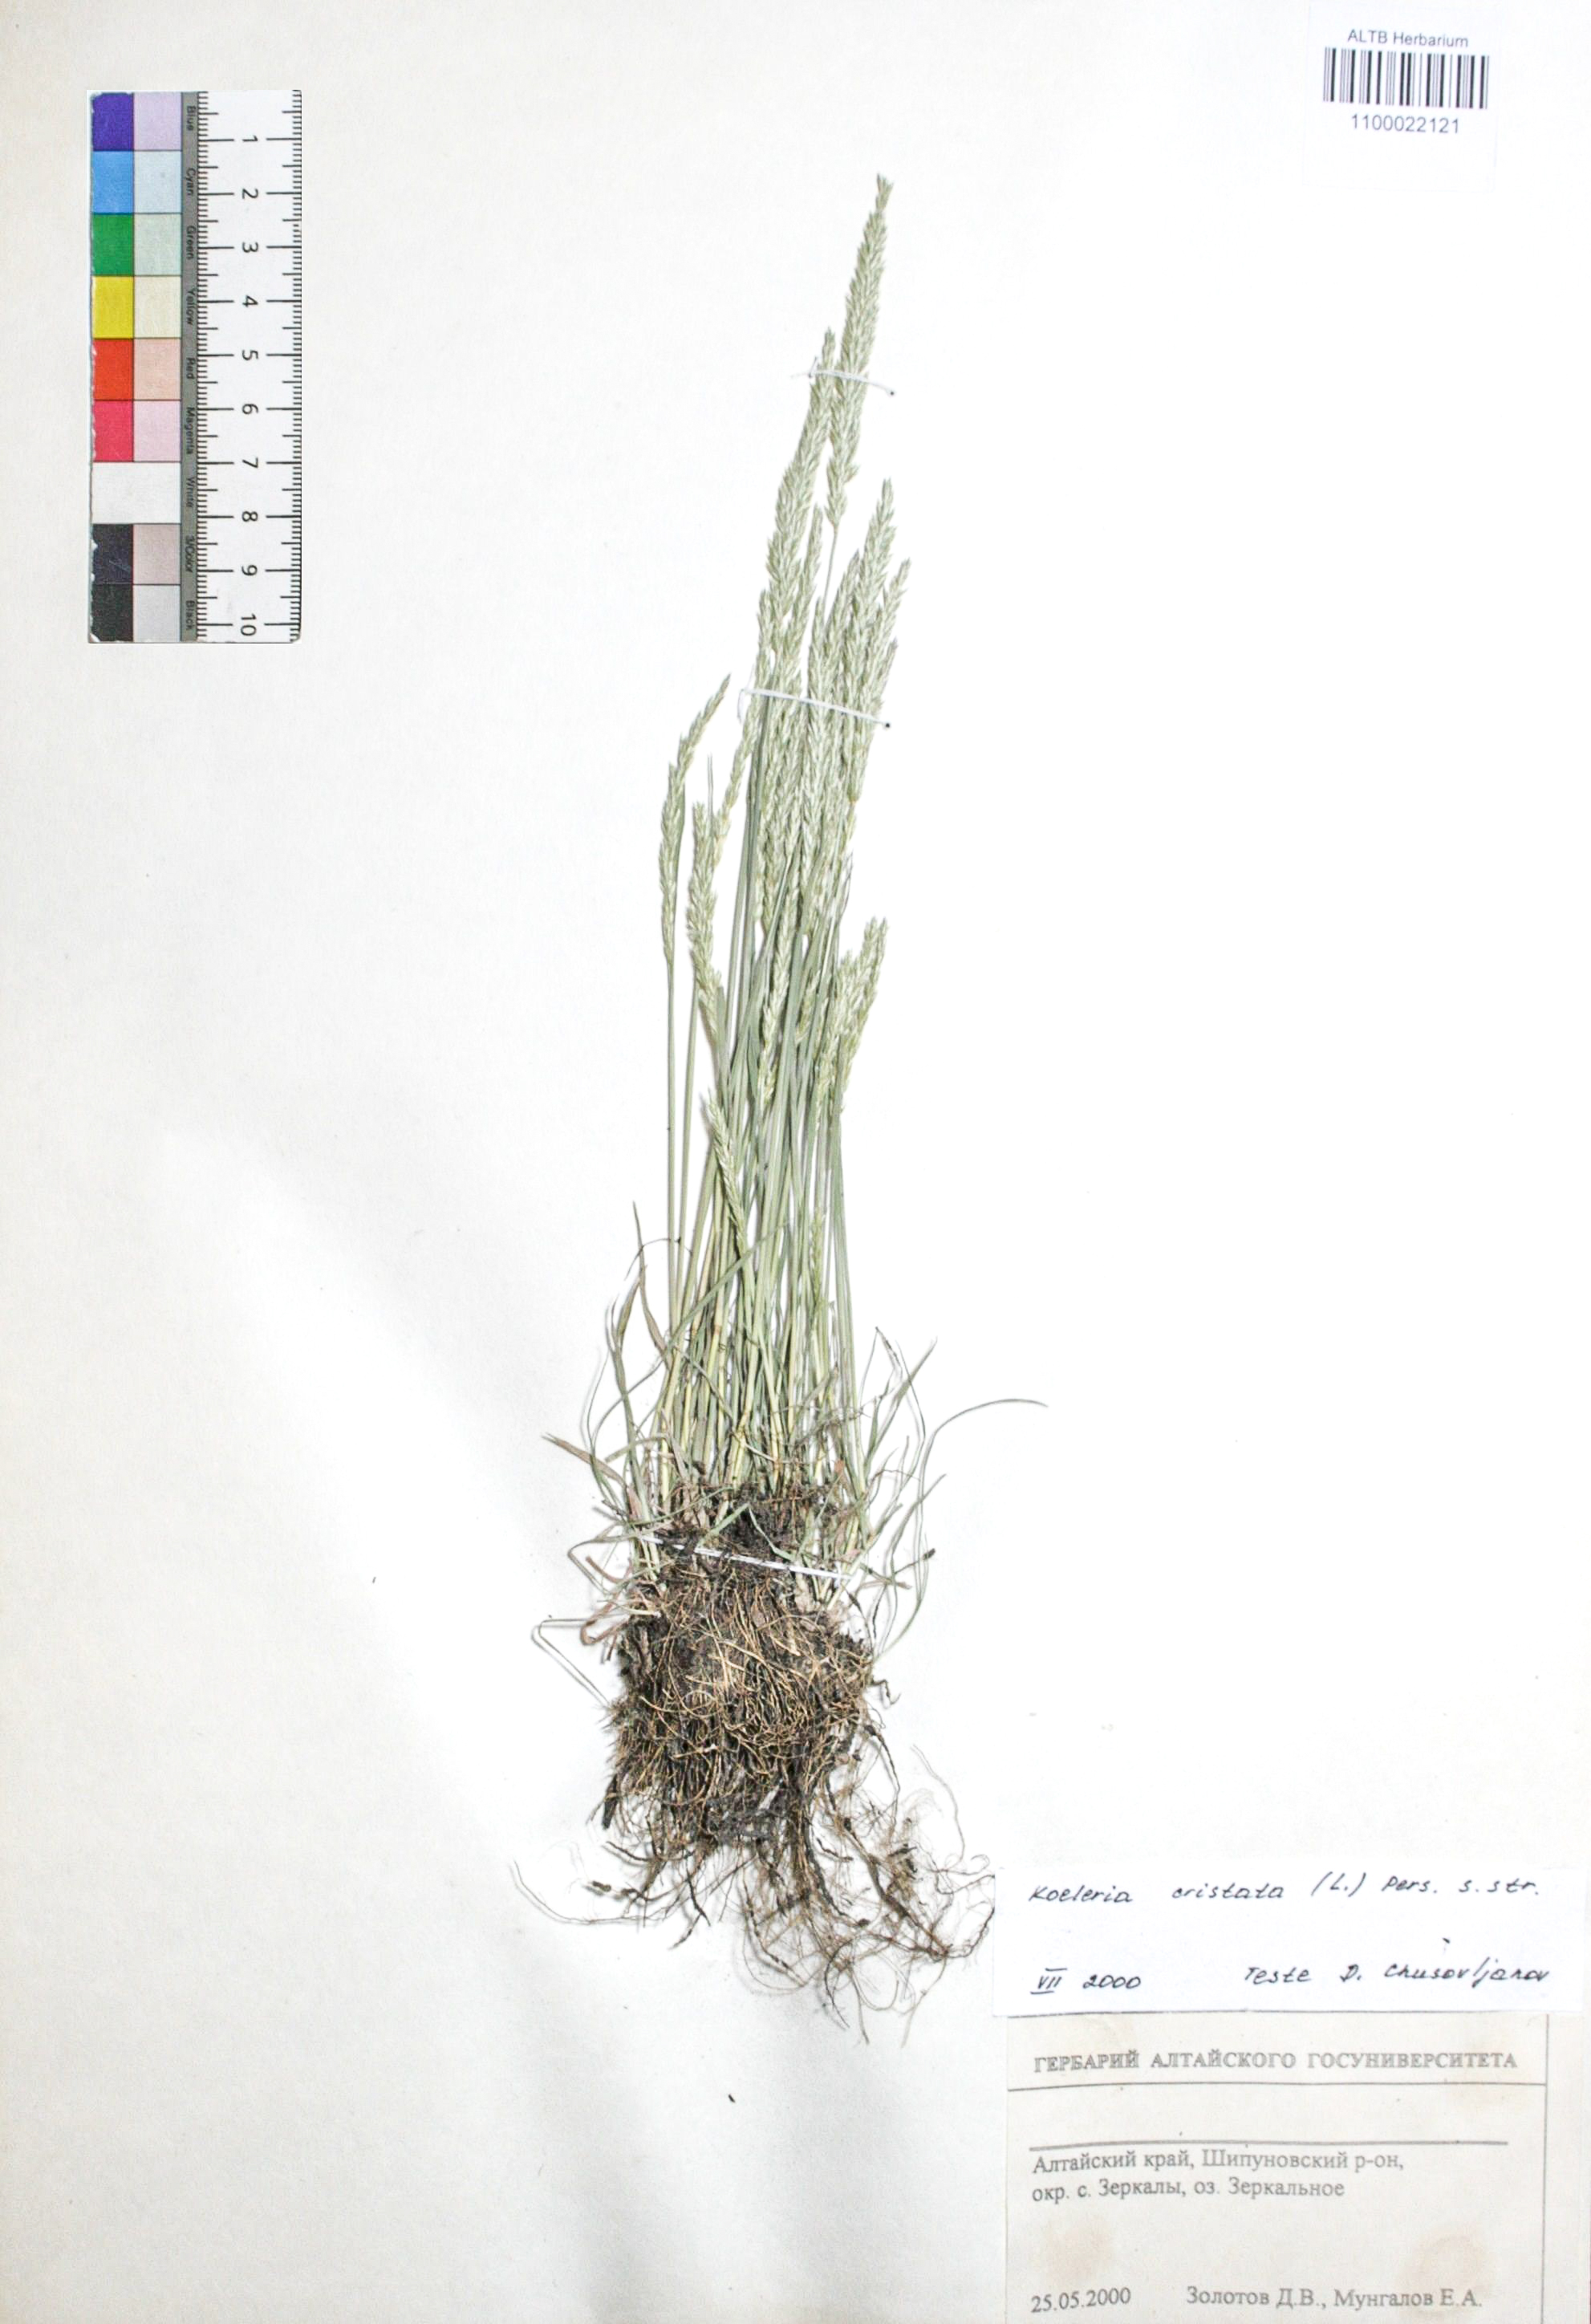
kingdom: Plantae
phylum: Tracheophyta
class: Liliopsida
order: Poales
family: Poaceae
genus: Koeleria
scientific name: Koeleria pyramidata
